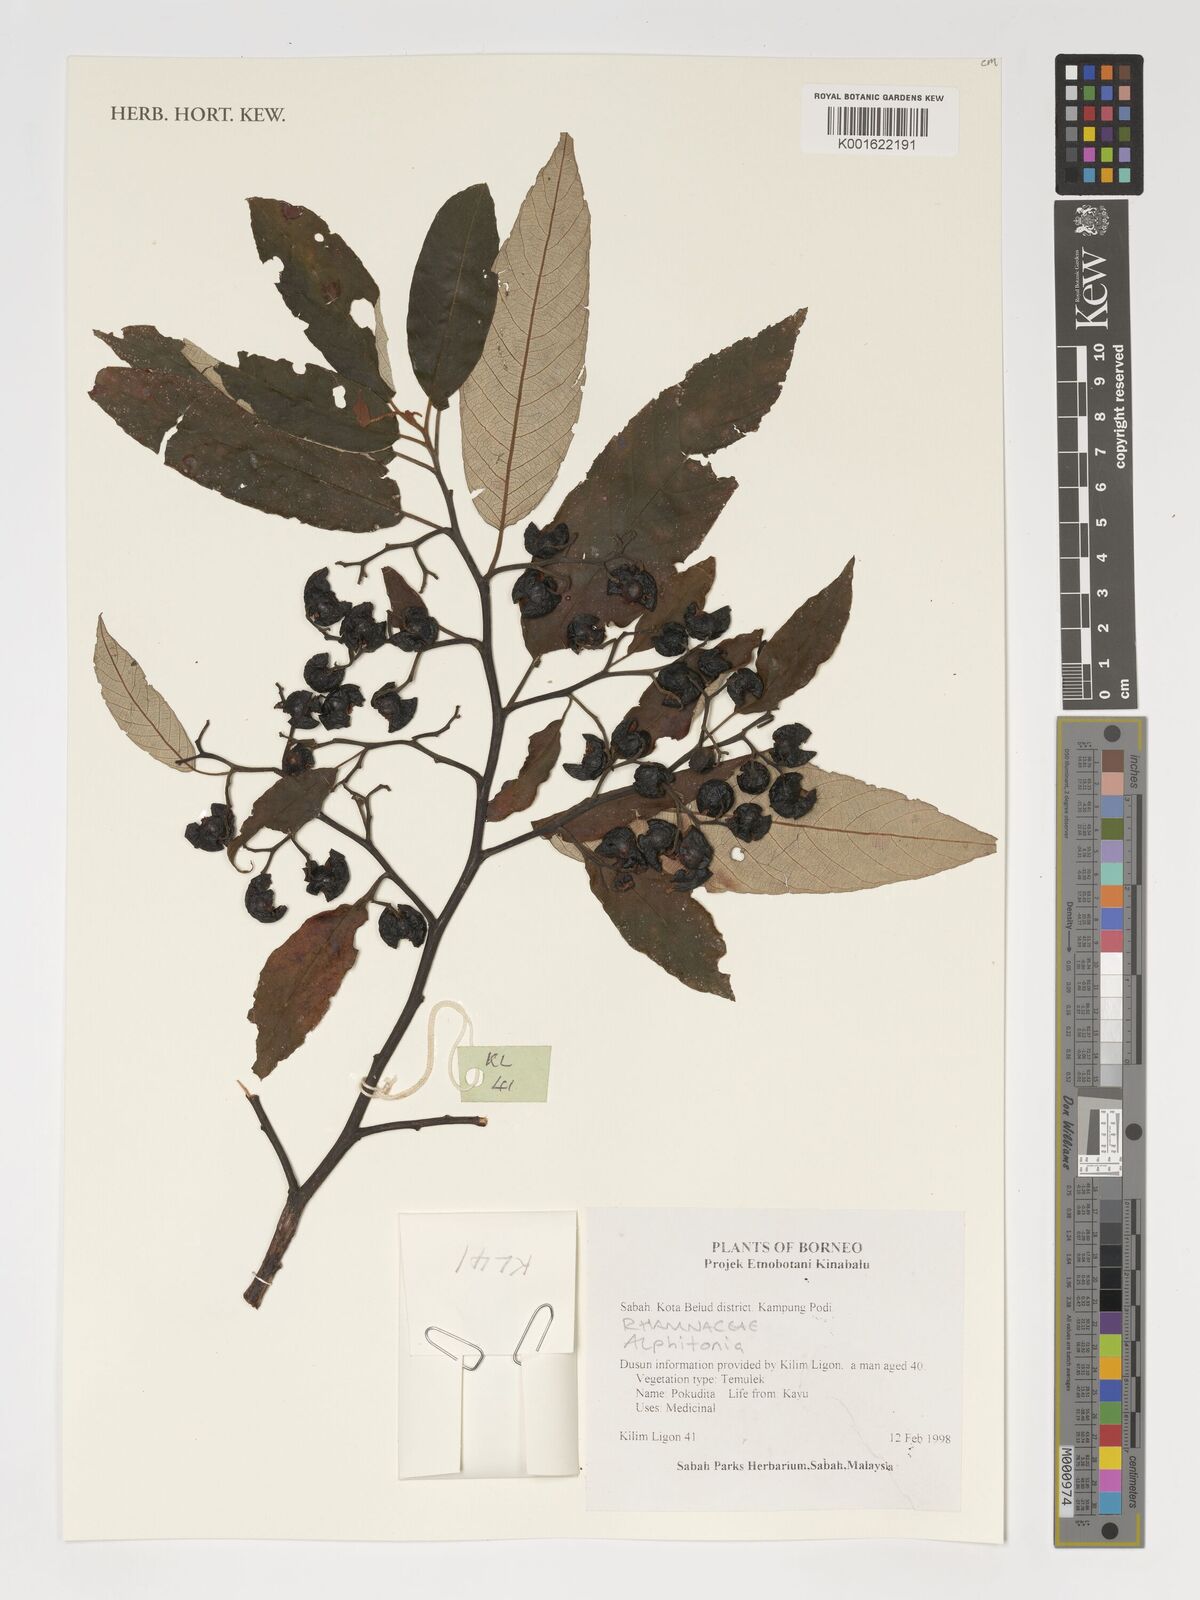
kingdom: Plantae
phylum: Tracheophyta
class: Magnoliopsida
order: Rosales
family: Rhamnaceae
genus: Alphitonia
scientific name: Alphitonia
